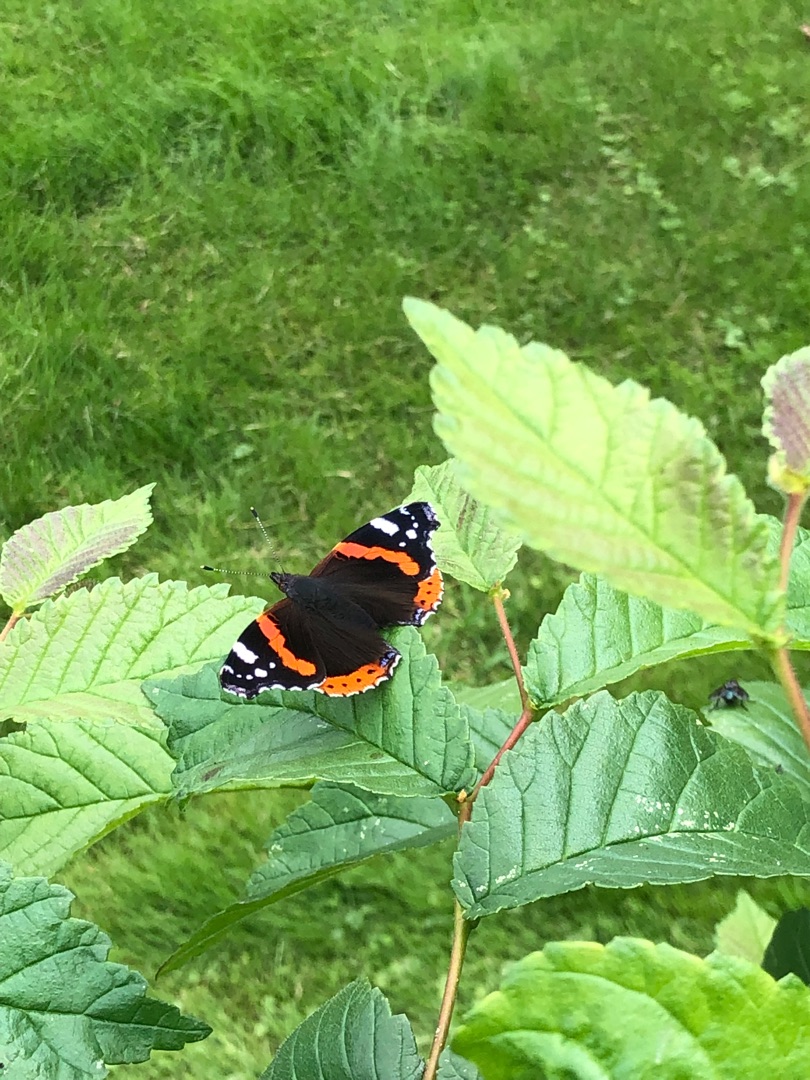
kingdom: Animalia
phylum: Arthropoda
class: Insecta
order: Lepidoptera
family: Nymphalidae
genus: Vanessa
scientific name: Vanessa atalanta
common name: Admiral
